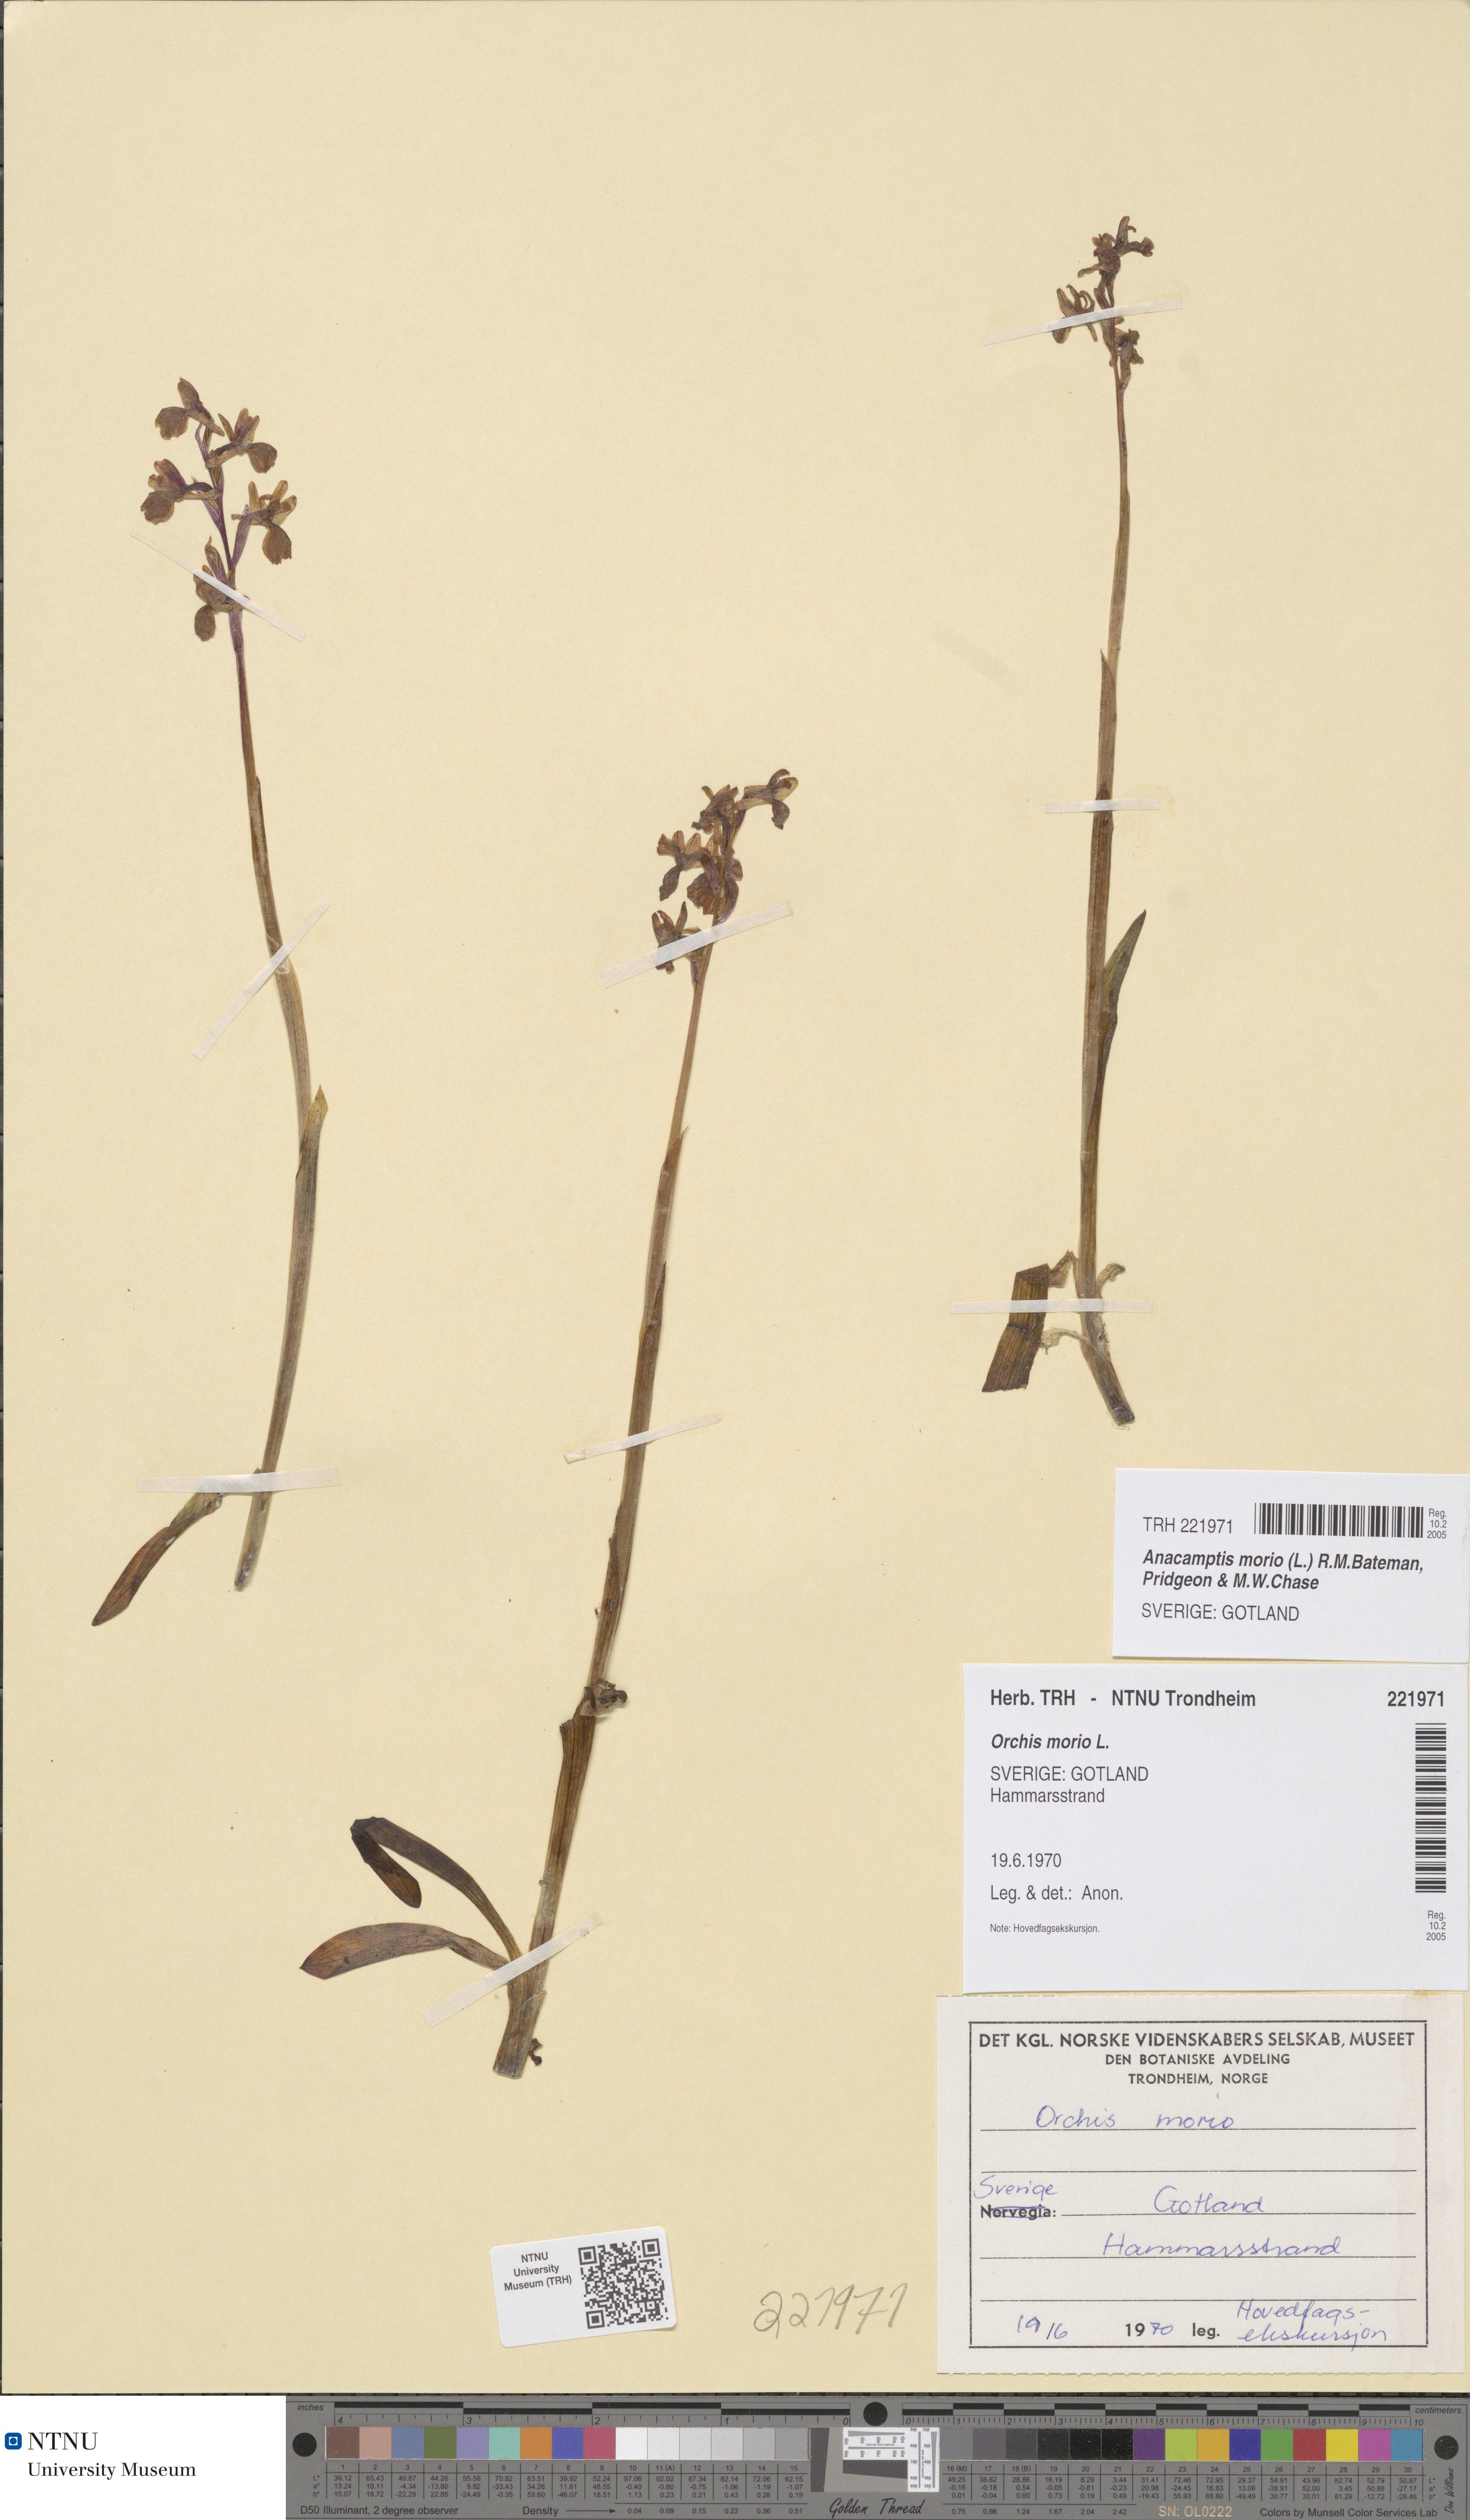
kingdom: Plantae
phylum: Tracheophyta
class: Liliopsida
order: Asparagales
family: Orchidaceae
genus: Anacamptis
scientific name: Anacamptis morio
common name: Green-winged orchid
